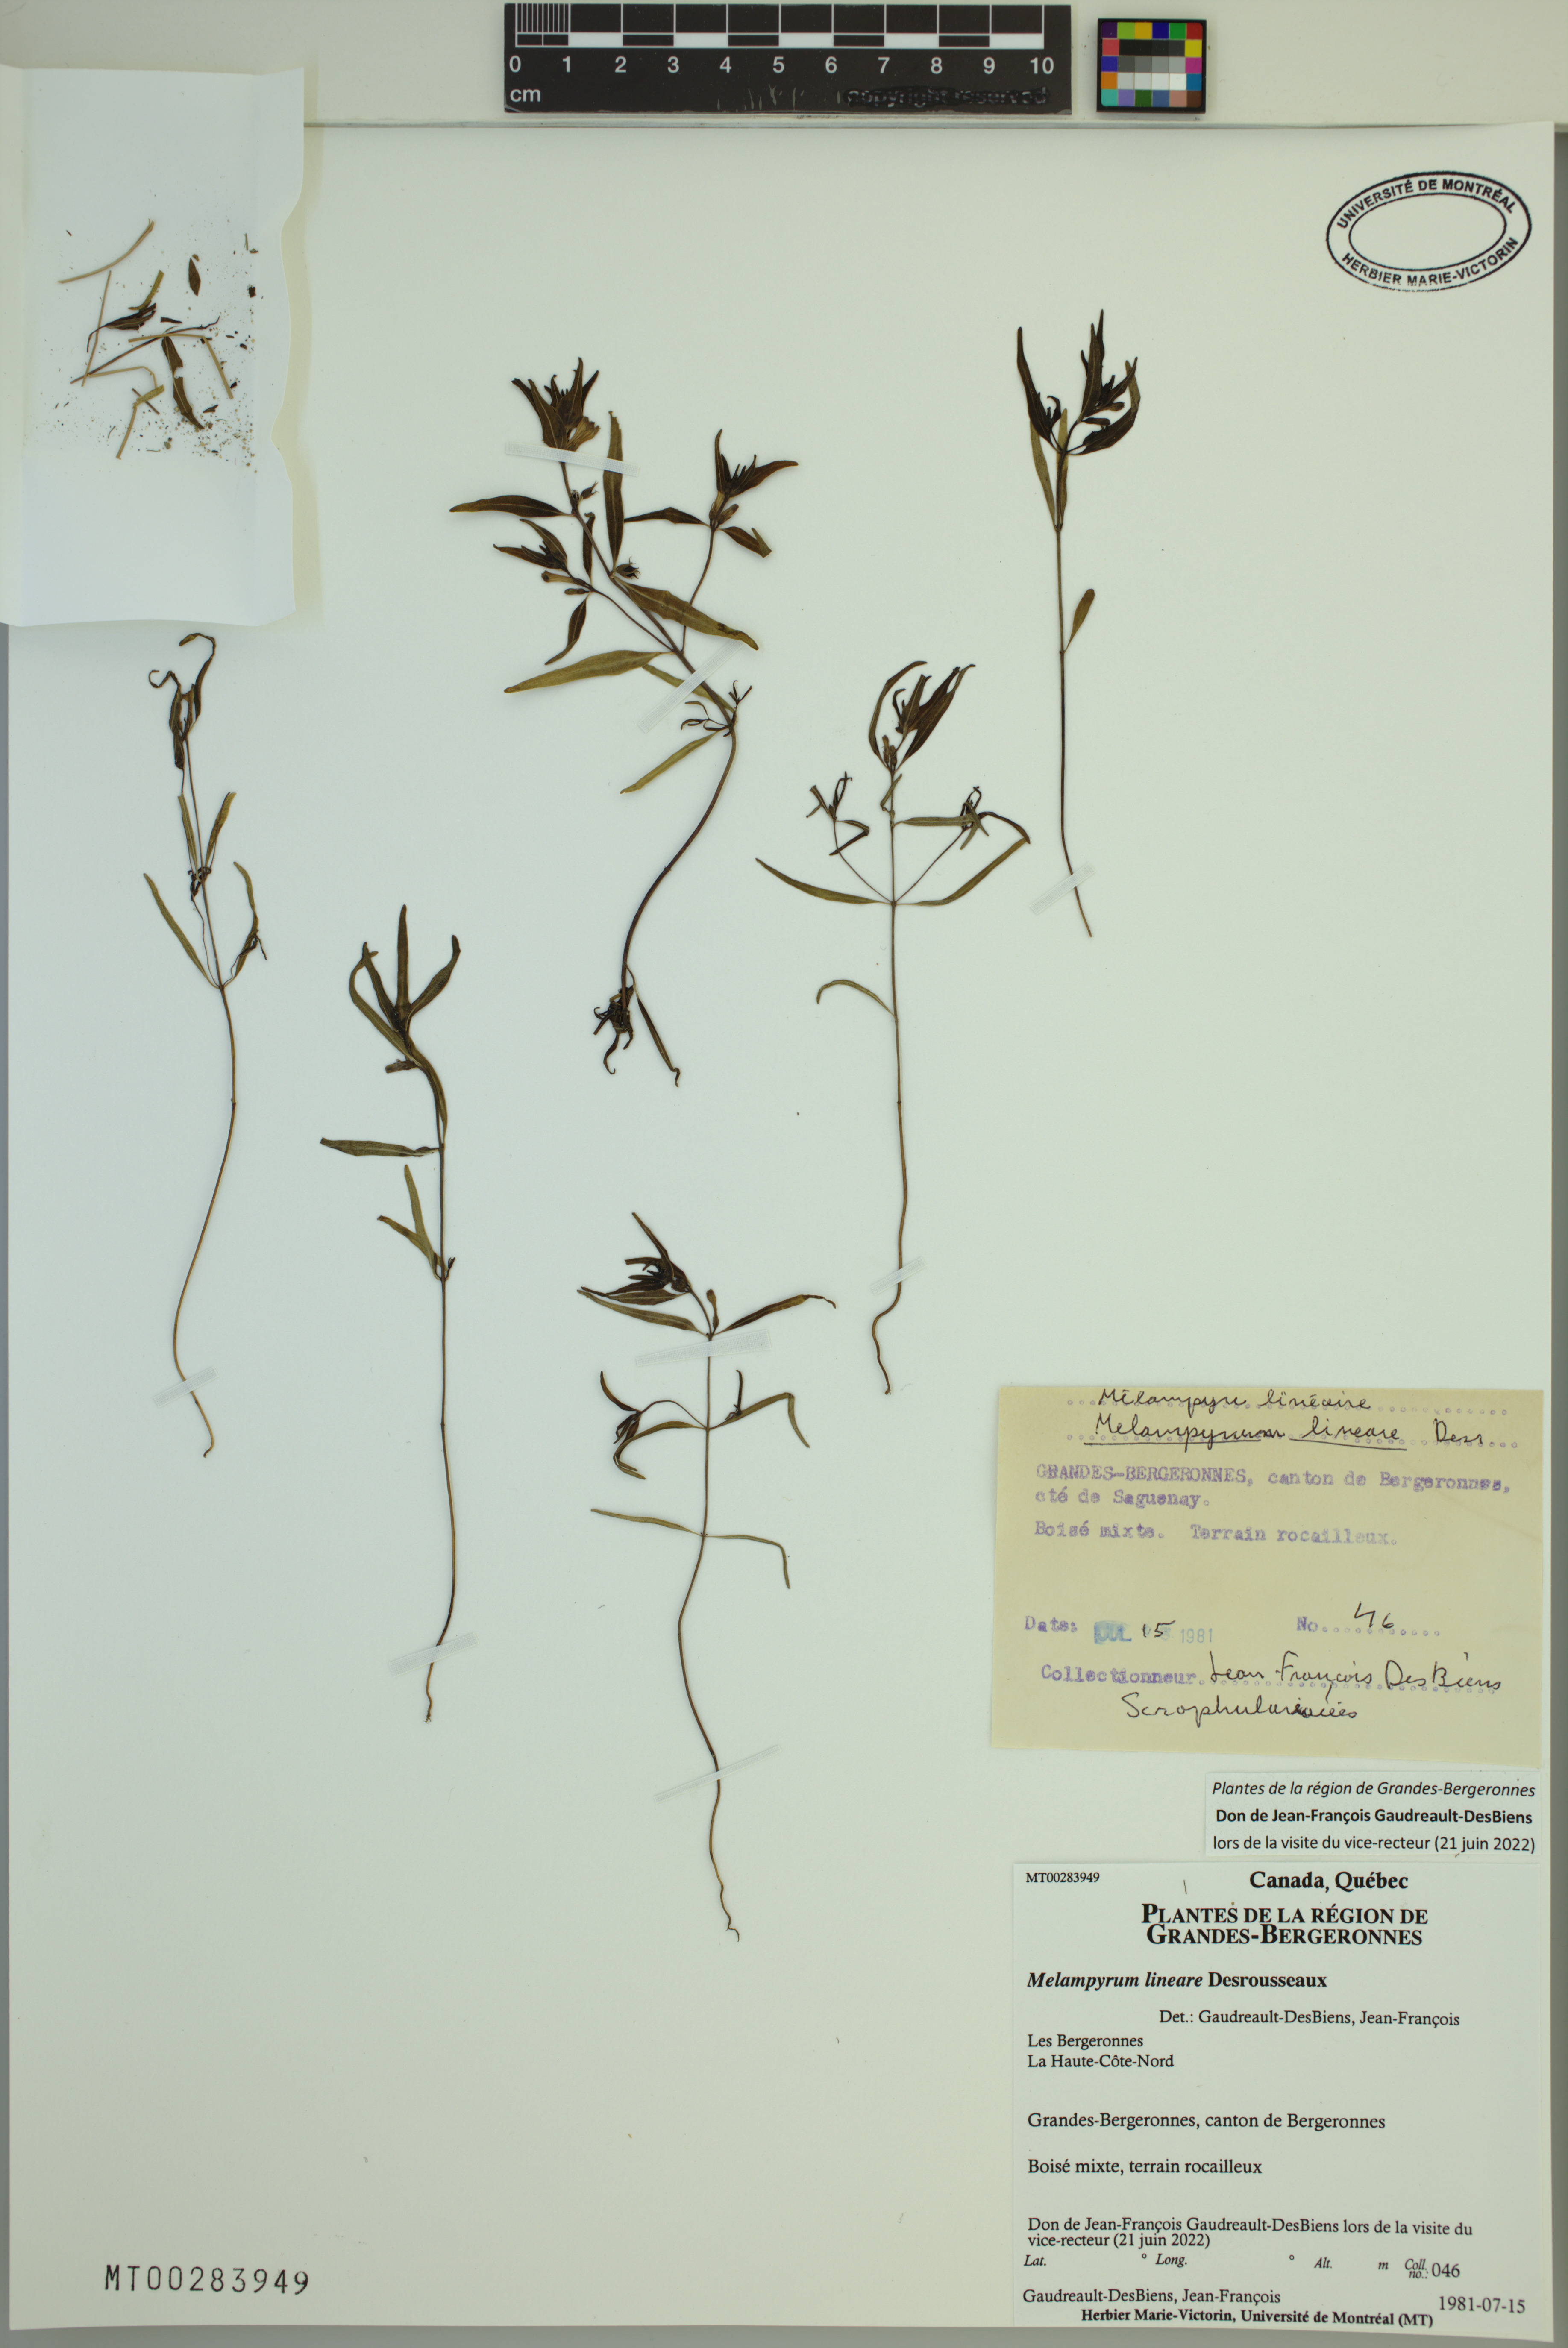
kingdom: Plantae
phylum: Tracheophyta
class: Magnoliopsida
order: Lamiales
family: Orobanchaceae
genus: Melampyrum
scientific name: Melampyrum lineare
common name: American cow-wheat
